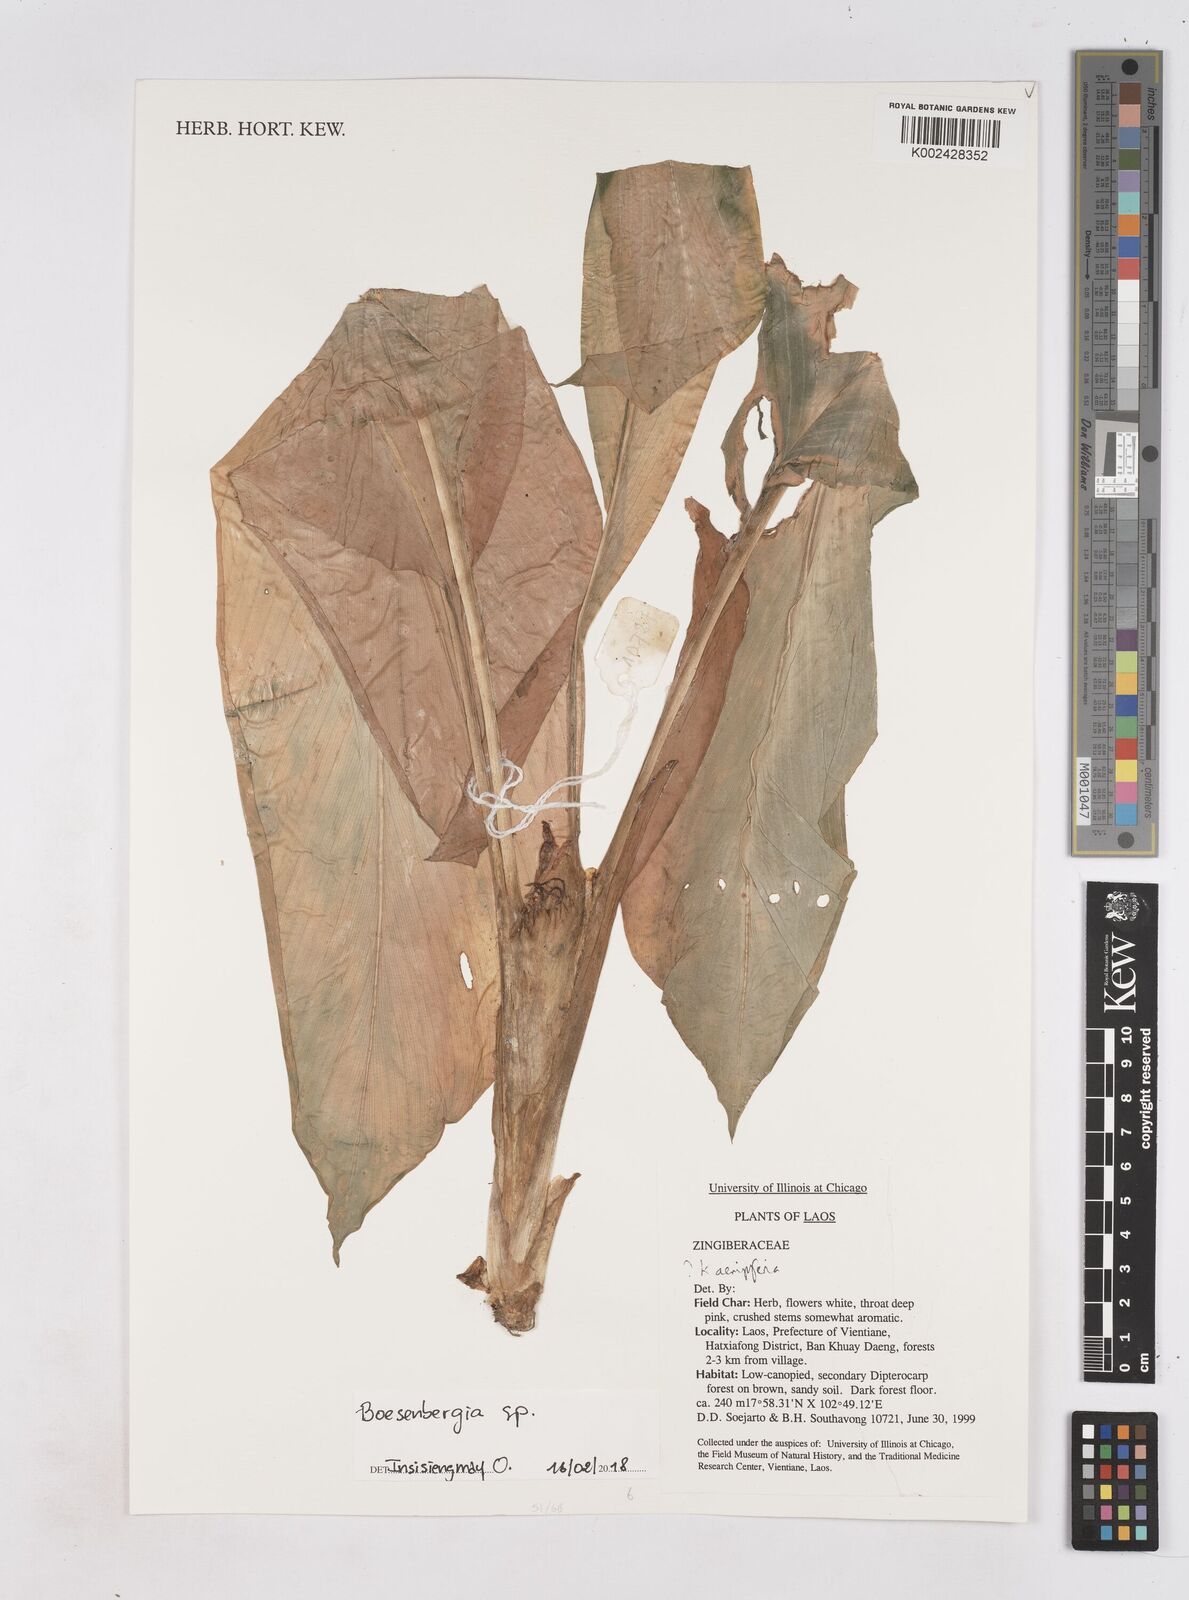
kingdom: Plantae
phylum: Tracheophyta
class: Liliopsida
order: Zingiberales
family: Zingiberaceae
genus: Boesenbergia
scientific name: Boesenbergia
